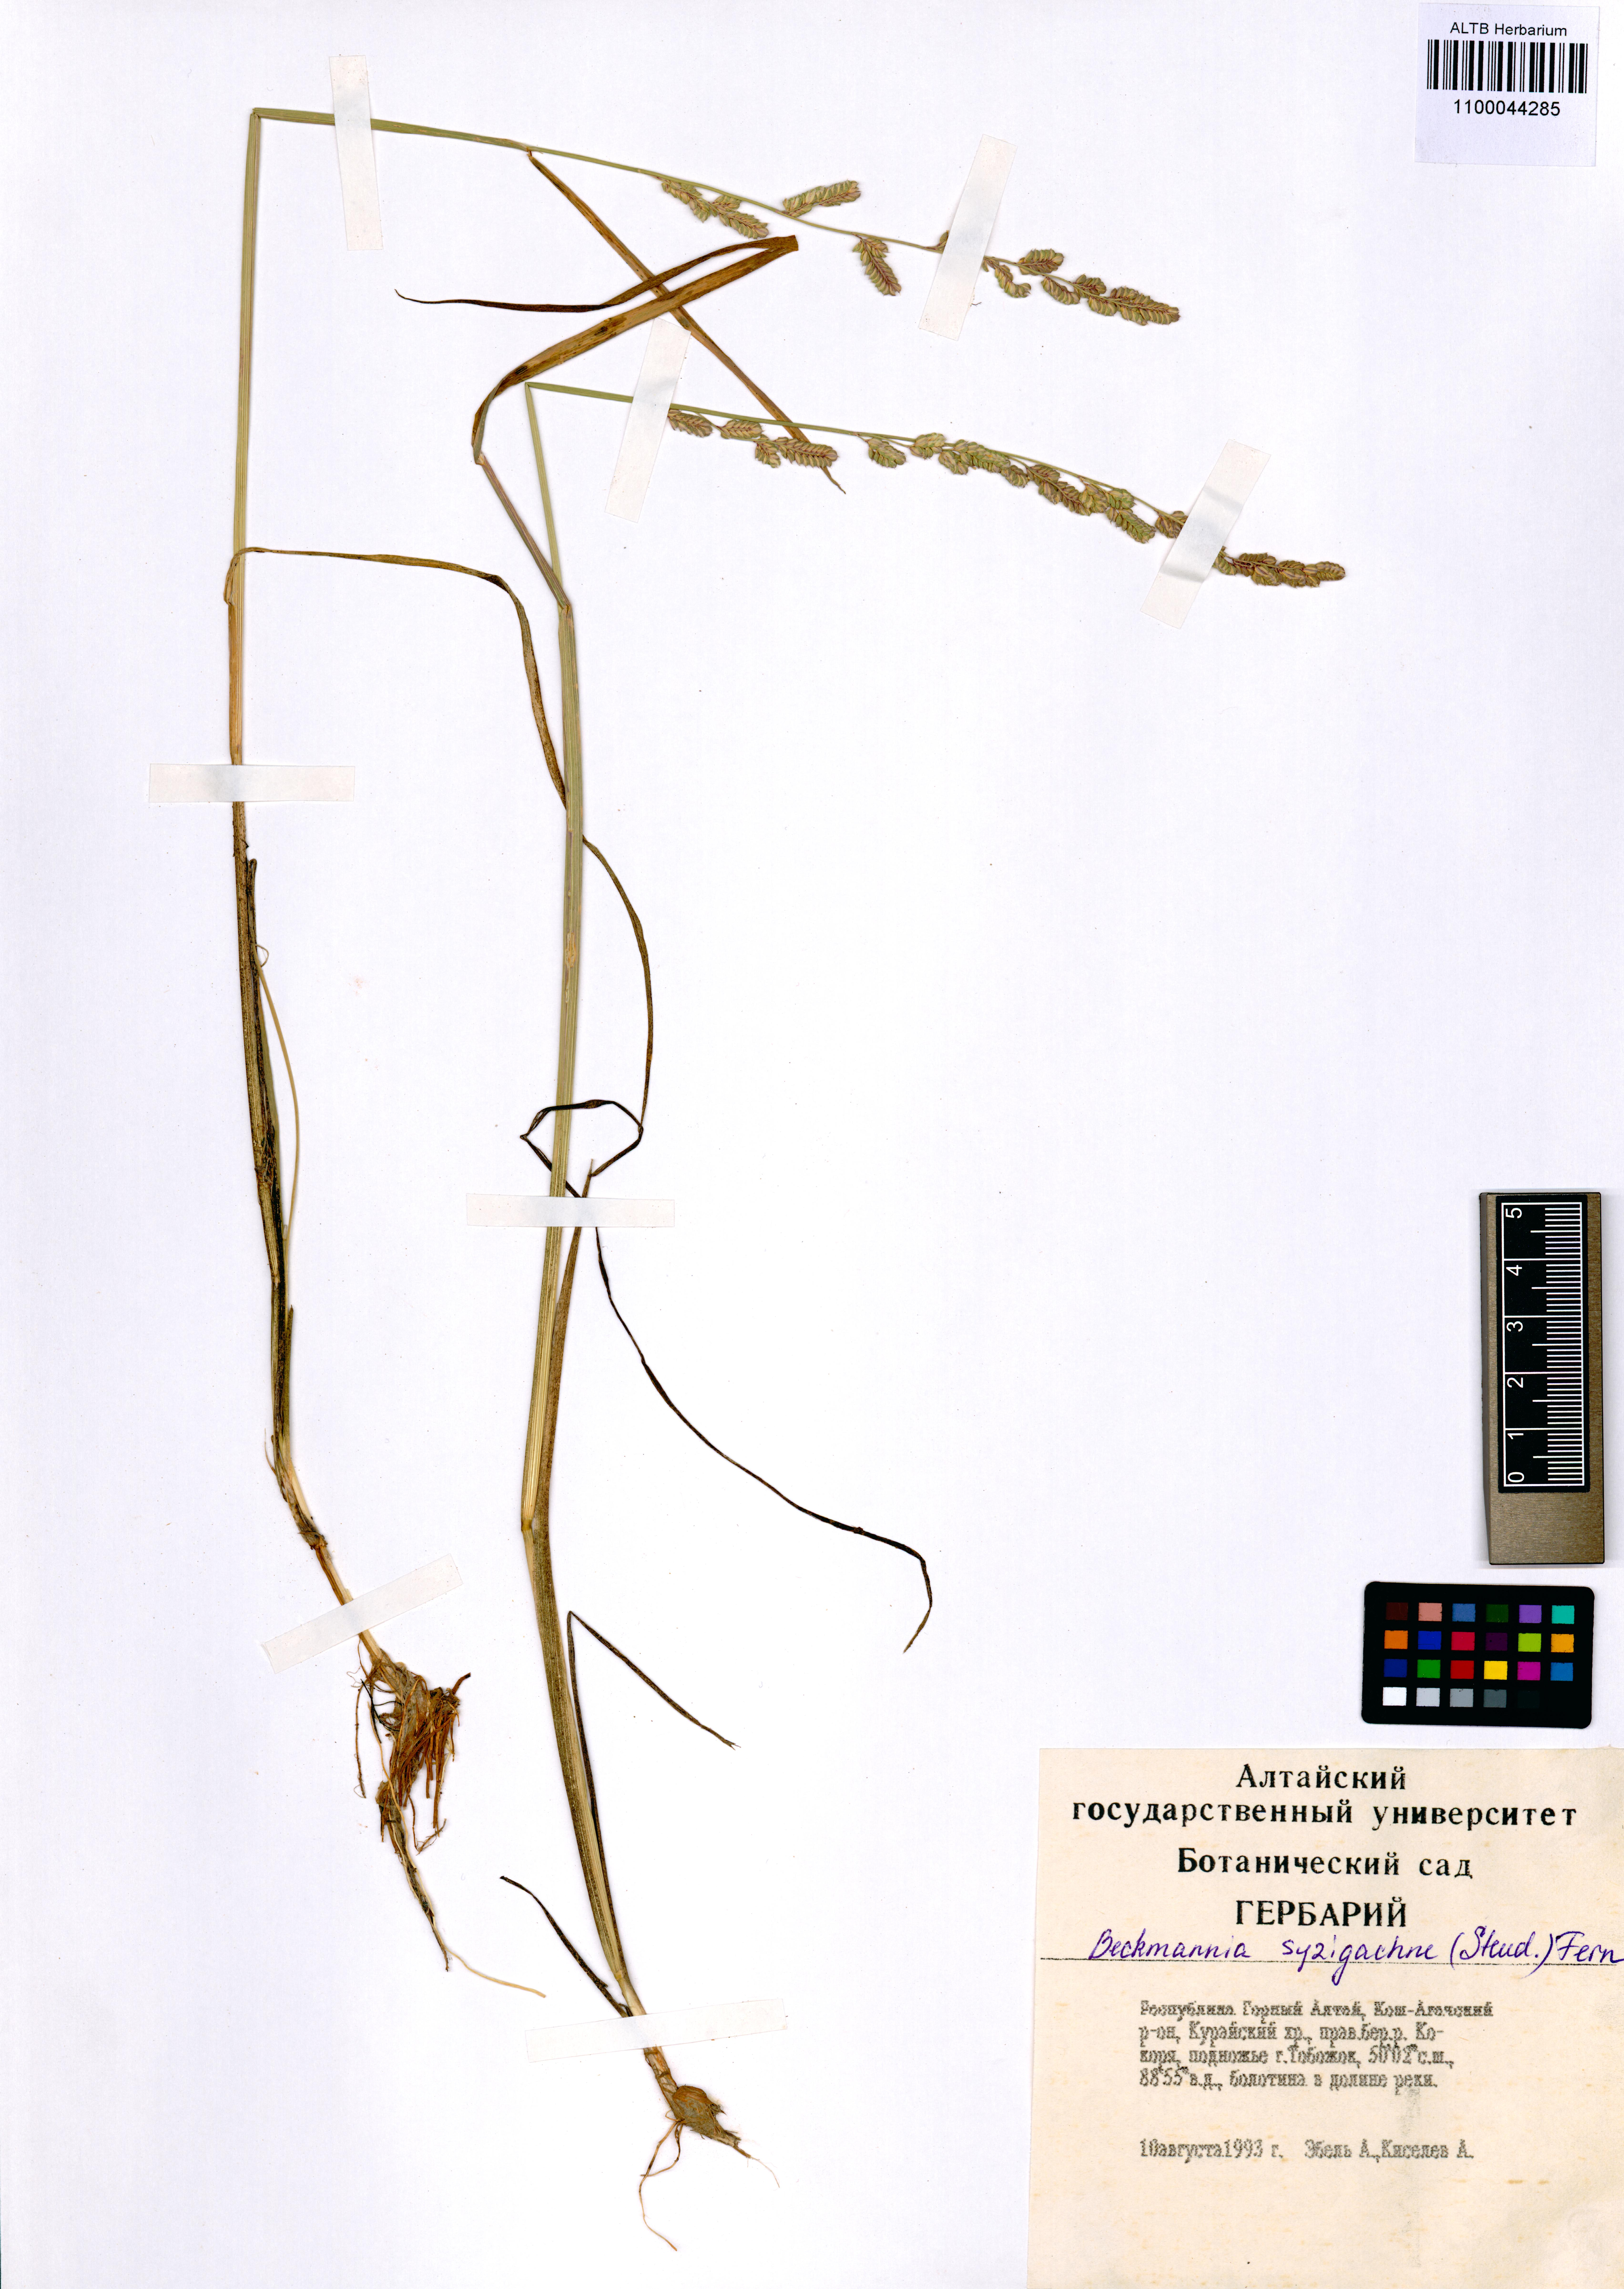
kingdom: Plantae
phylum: Tracheophyta
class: Liliopsida
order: Poales
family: Poaceae
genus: Beckmannia
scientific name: Beckmannia syzigachne
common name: American slough-grass
